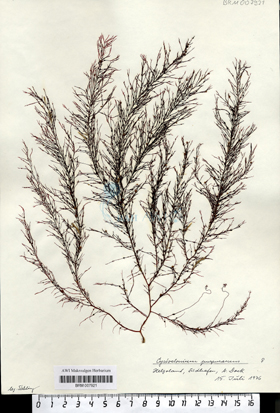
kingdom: Plantae
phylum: Rhodophyta
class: Florideophyceae
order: Gigartinales
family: Cystocloniaceae
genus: Cystoclonium
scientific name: Cystoclonium purpureum
